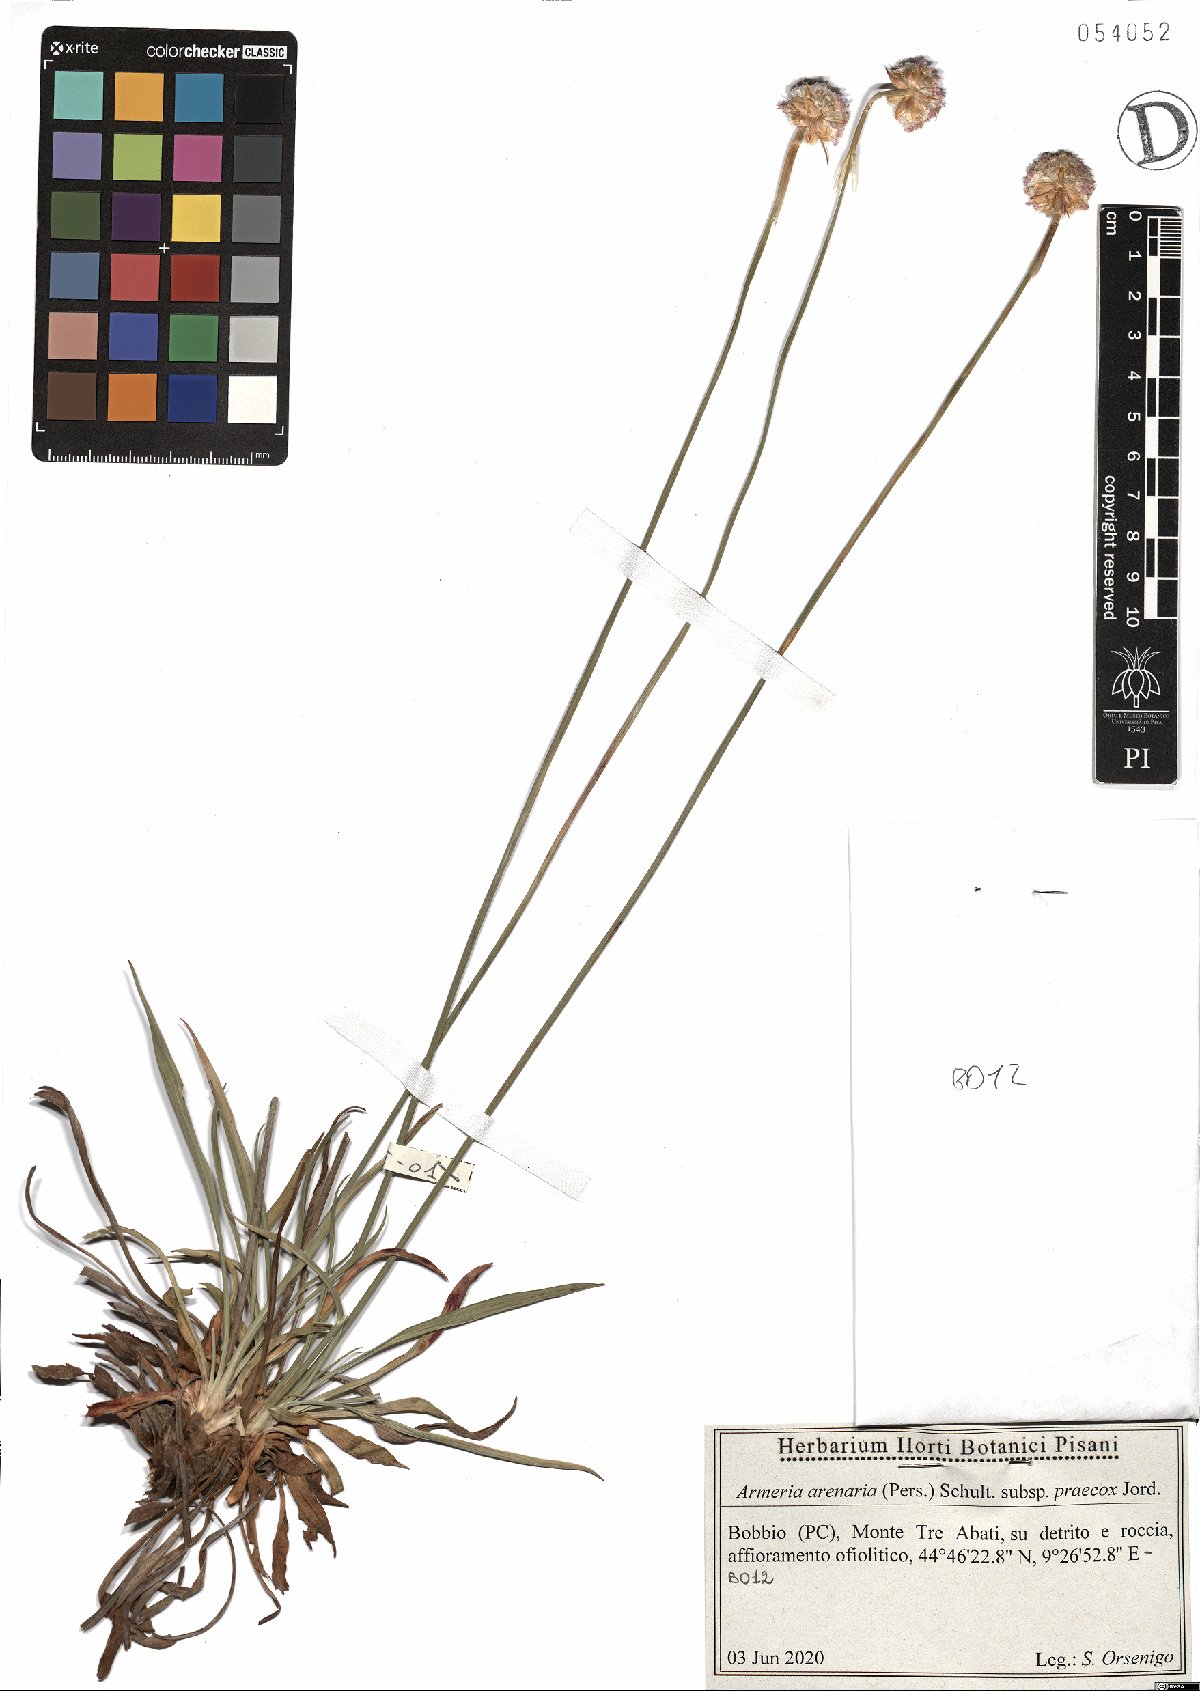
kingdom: Plantae
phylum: Tracheophyta
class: Magnoliopsida
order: Caryophyllales
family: Plumbaginaceae
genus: Armeria
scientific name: Armeria arenaria
